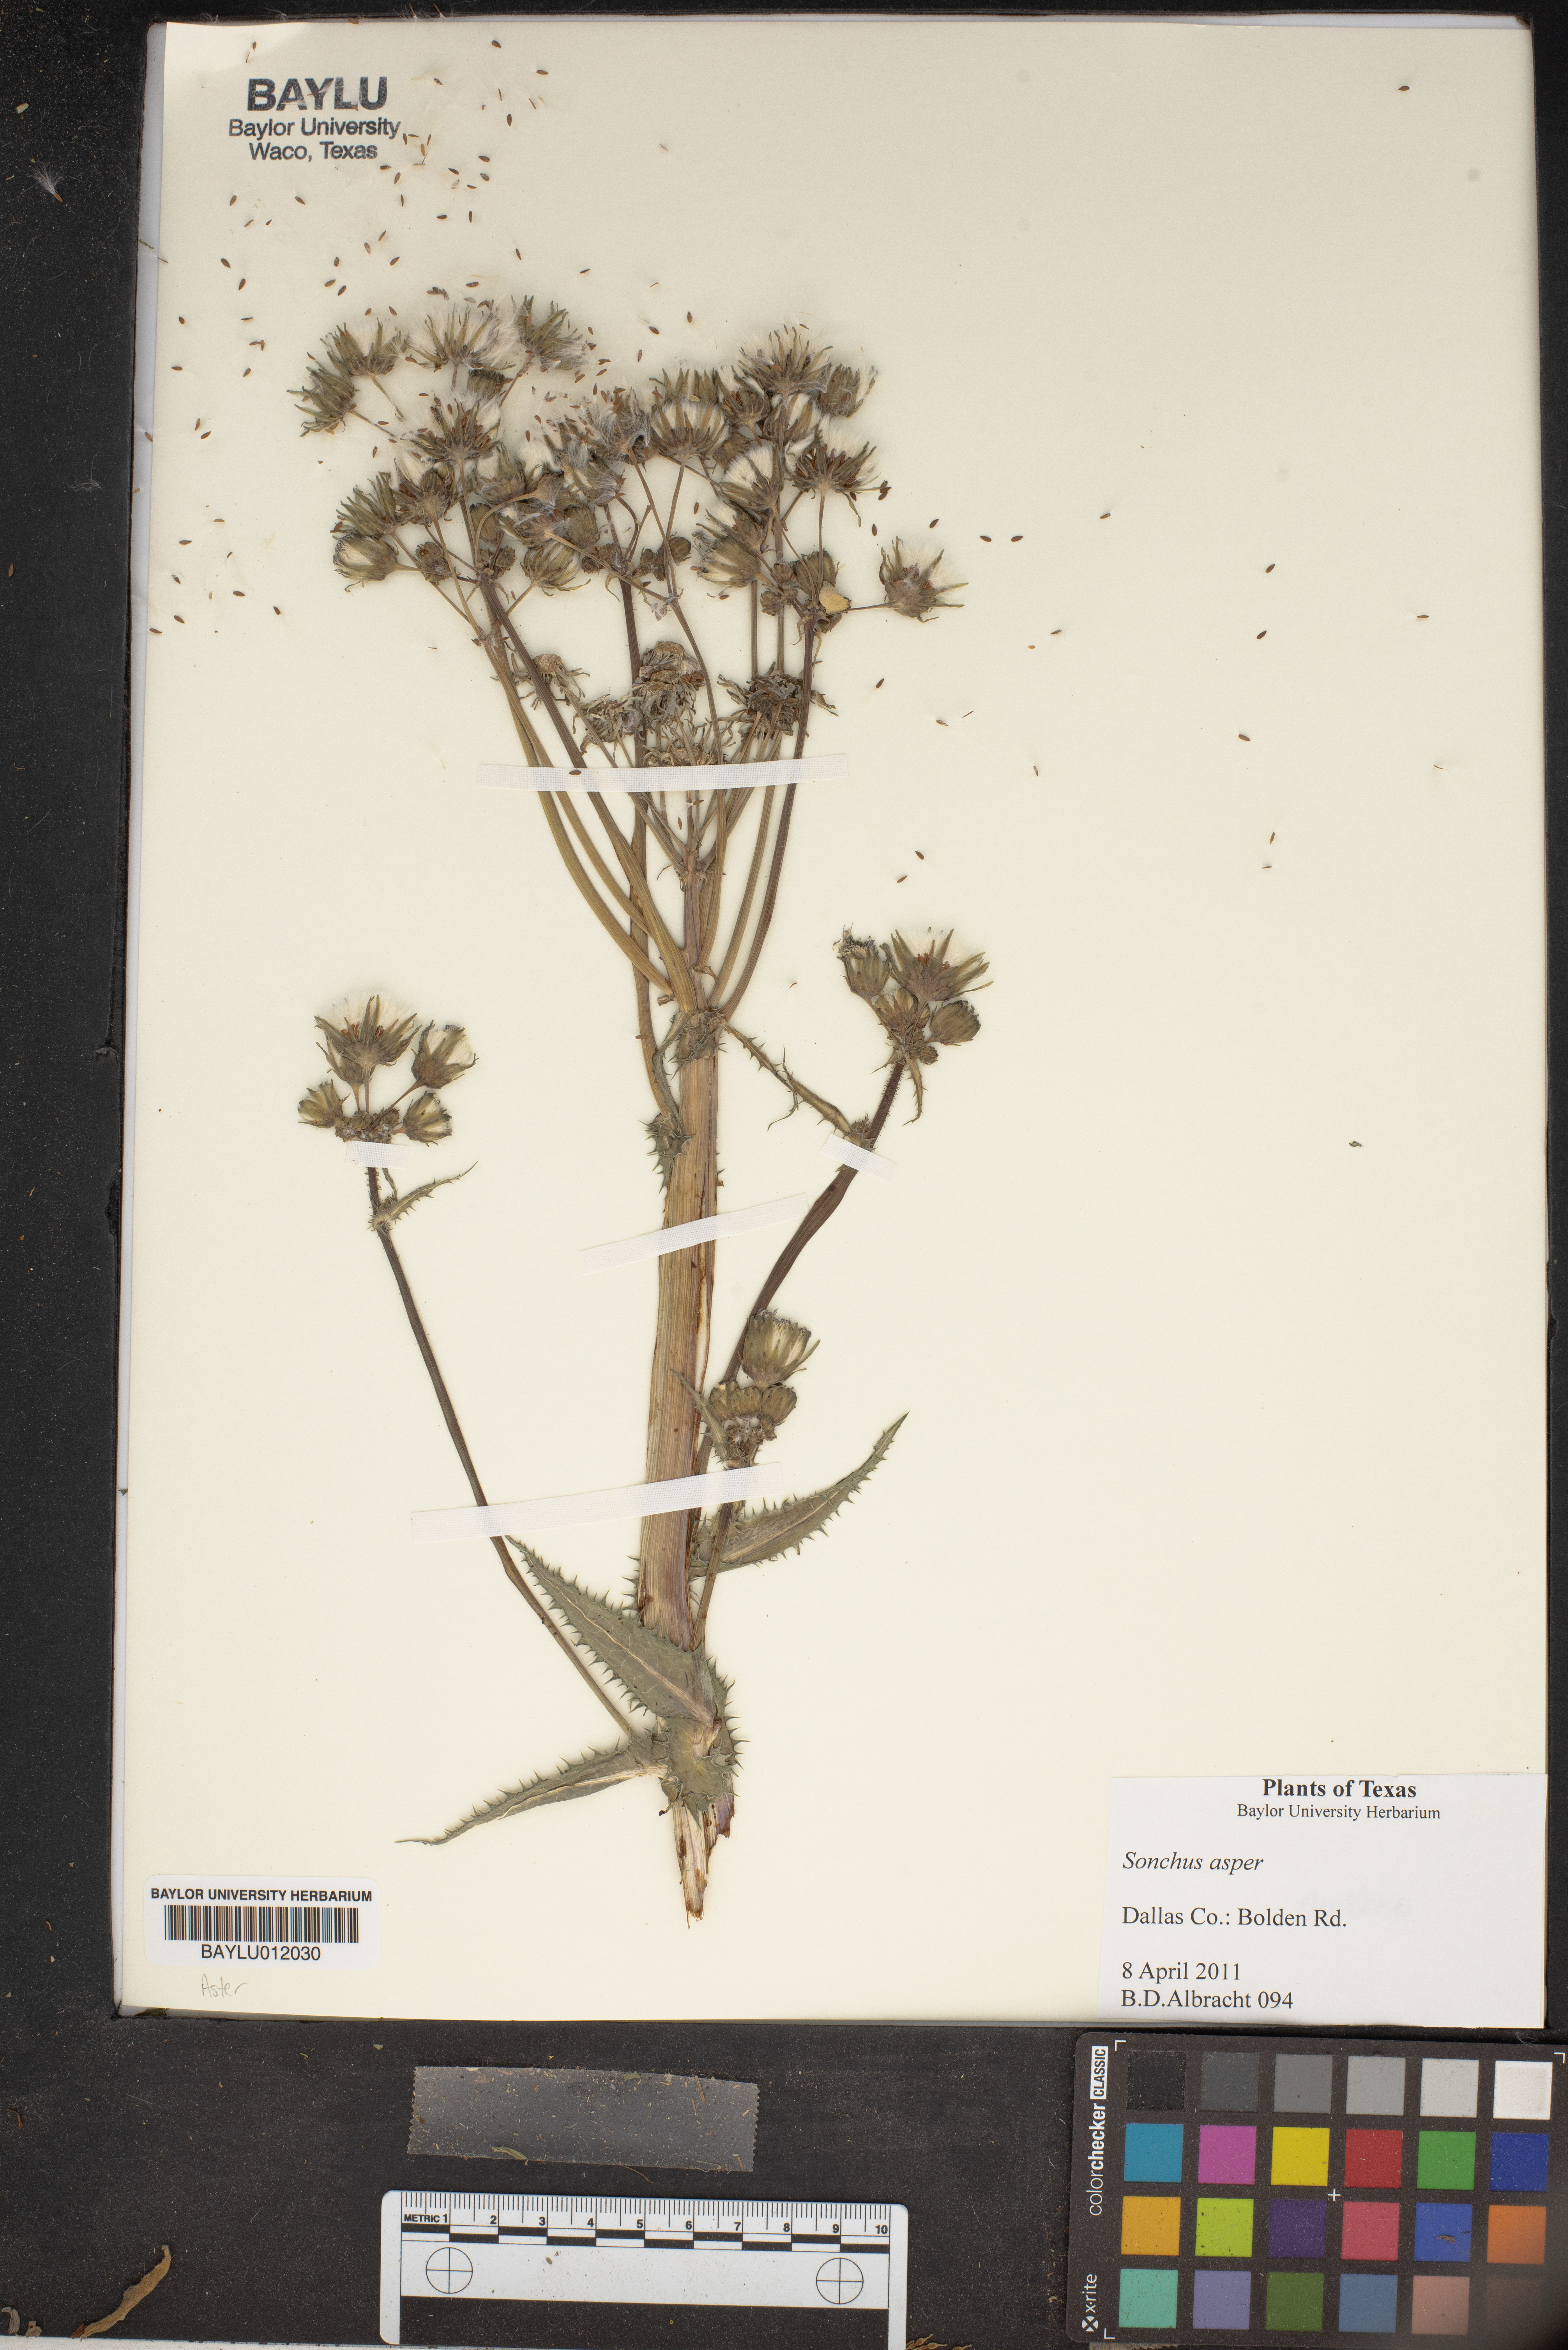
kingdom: Plantae
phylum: Tracheophyta
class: Magnoliopsida
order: Asterales
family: Asteraceae
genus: Sonchus
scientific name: Sonchus asper
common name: Prickly sow-thistle
